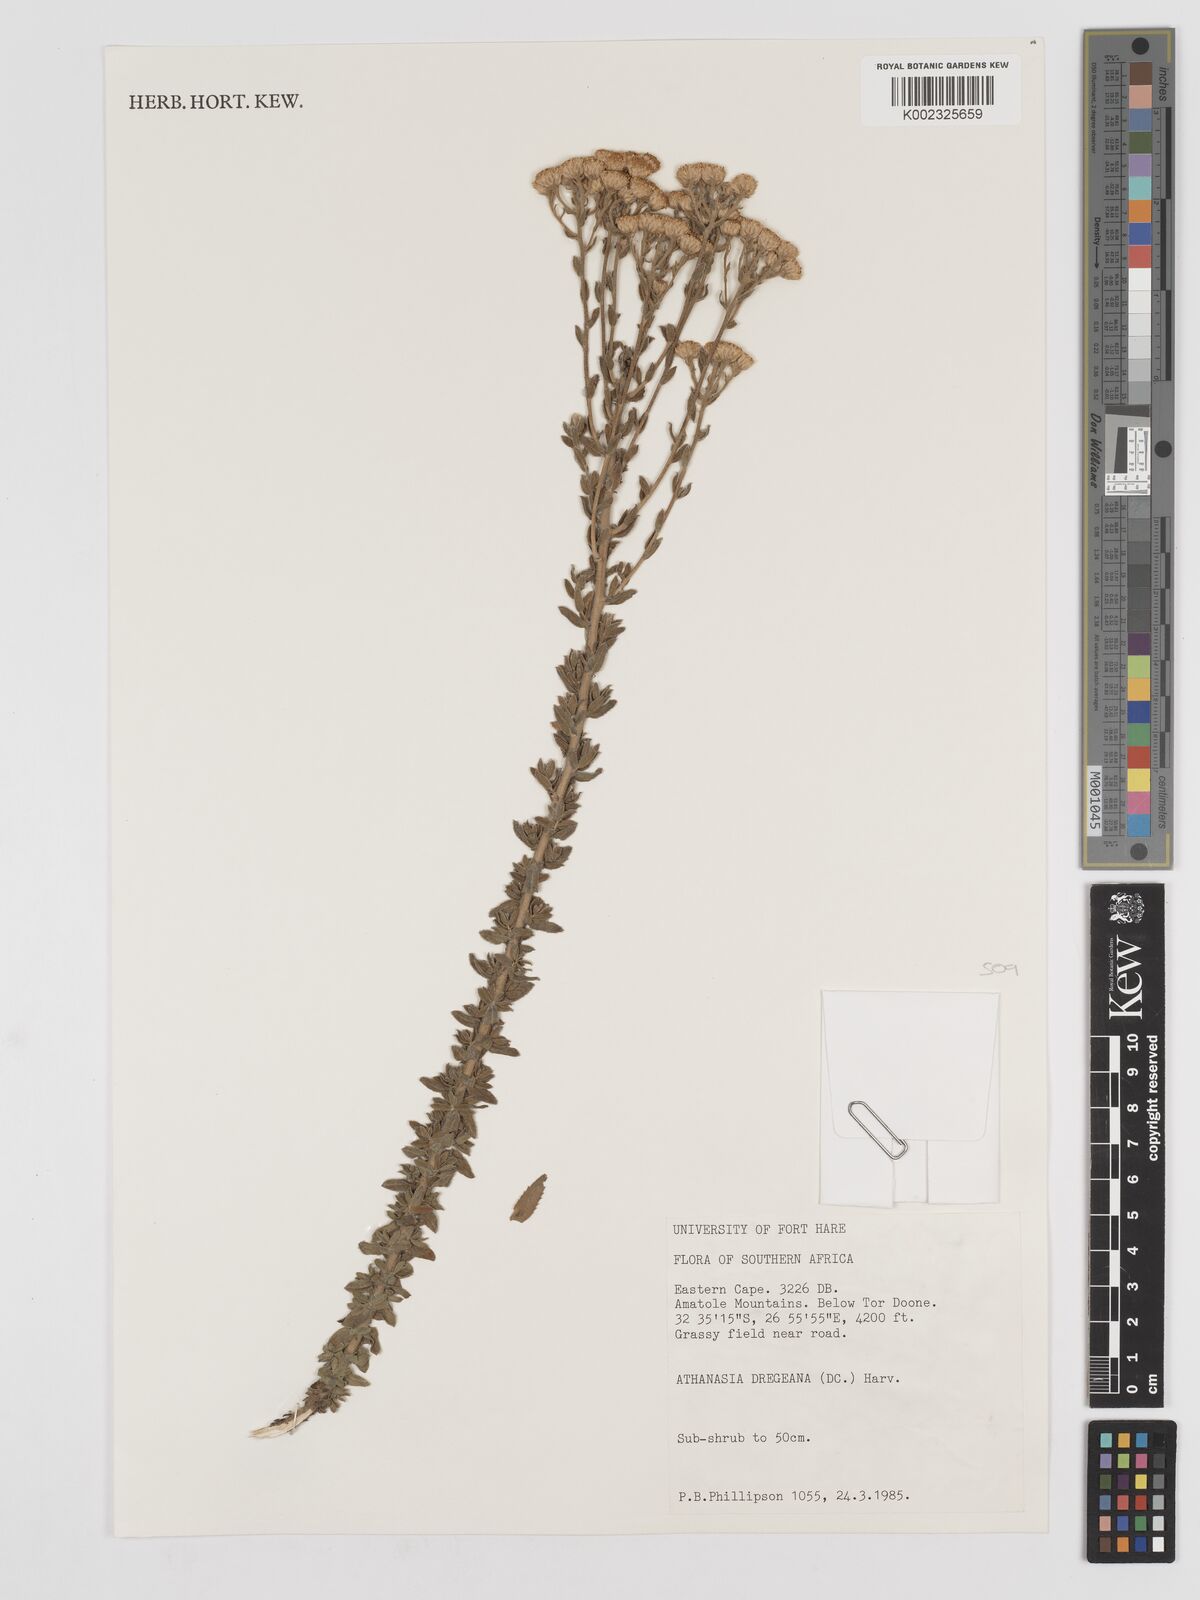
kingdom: Plantae
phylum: Tracheophyta
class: Magnoliopsida
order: Asterales
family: Asteraceae
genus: Inulanthera
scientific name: Inulanthera dregeana
